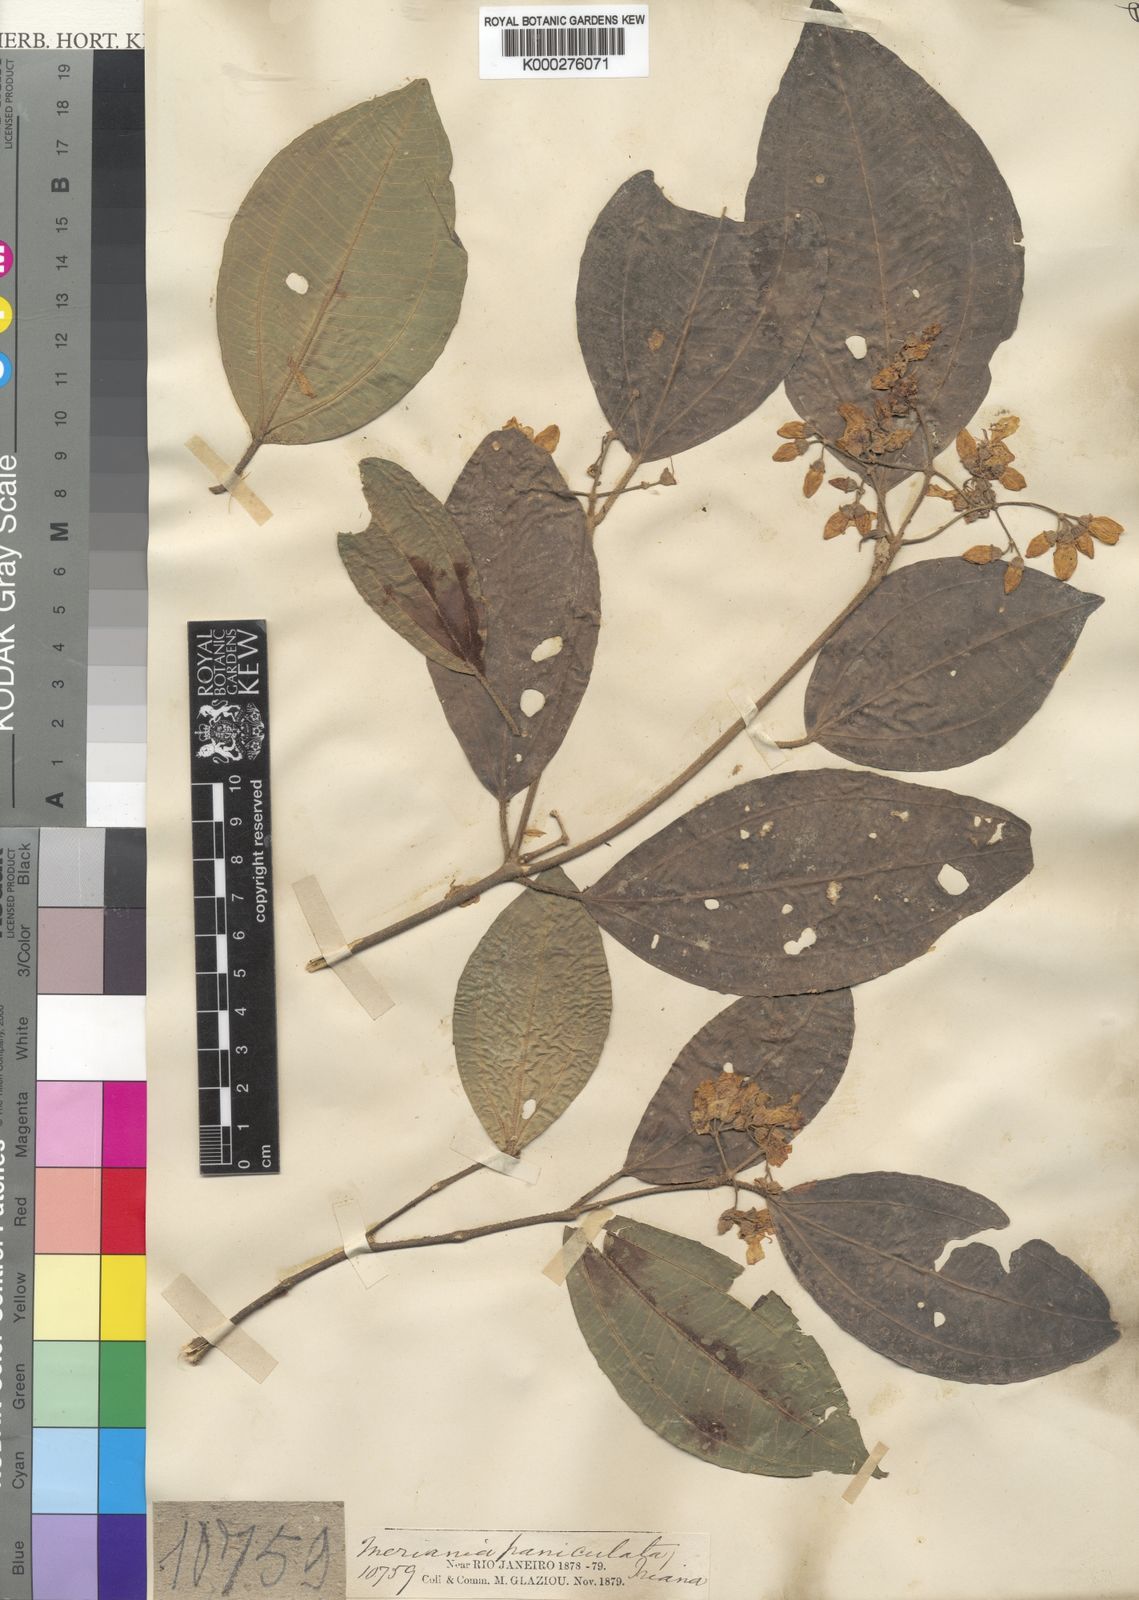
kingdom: Plantae
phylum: Tracheophyta
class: Magnoliopsida
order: Myrtales
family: Melastomataceae
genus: Meriania
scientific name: Meriania paniculata
